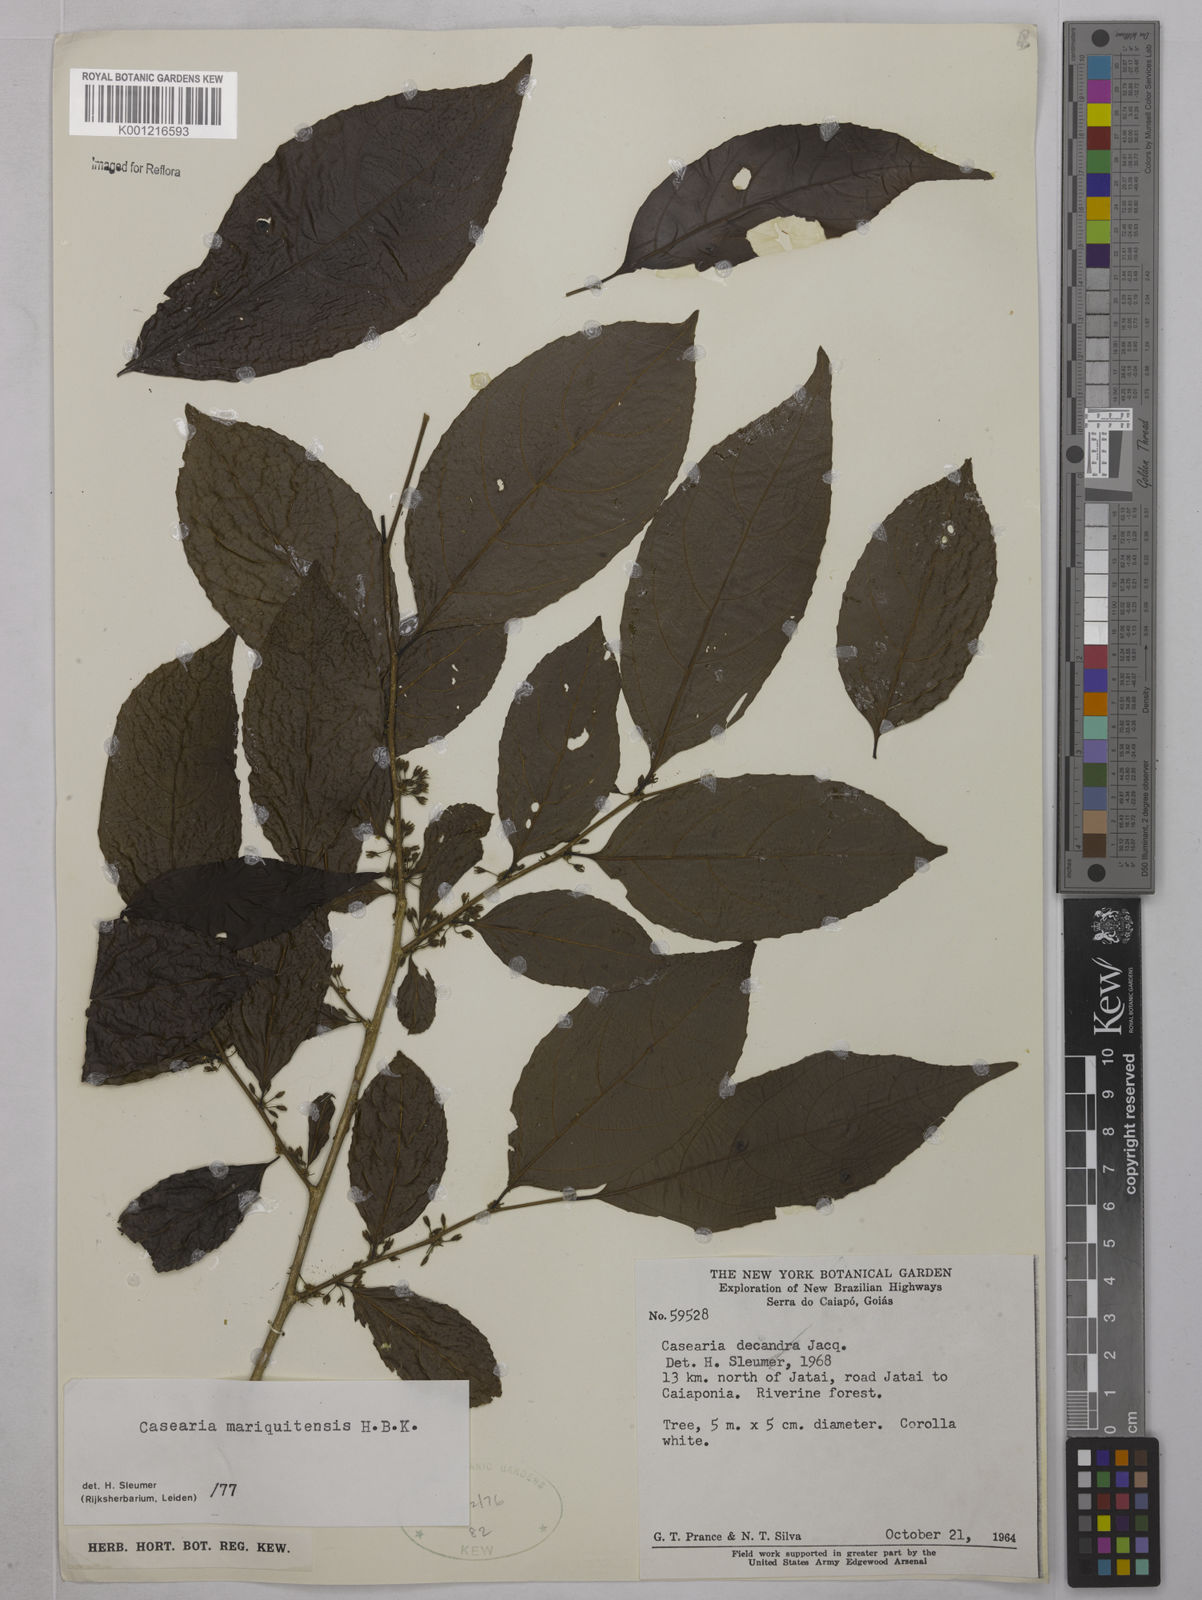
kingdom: Plantae
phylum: Tracheophyta
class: Magnoliopsida
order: Malpighiales
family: Salicaceae
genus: Casearia
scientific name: Casearia mariquitensis
